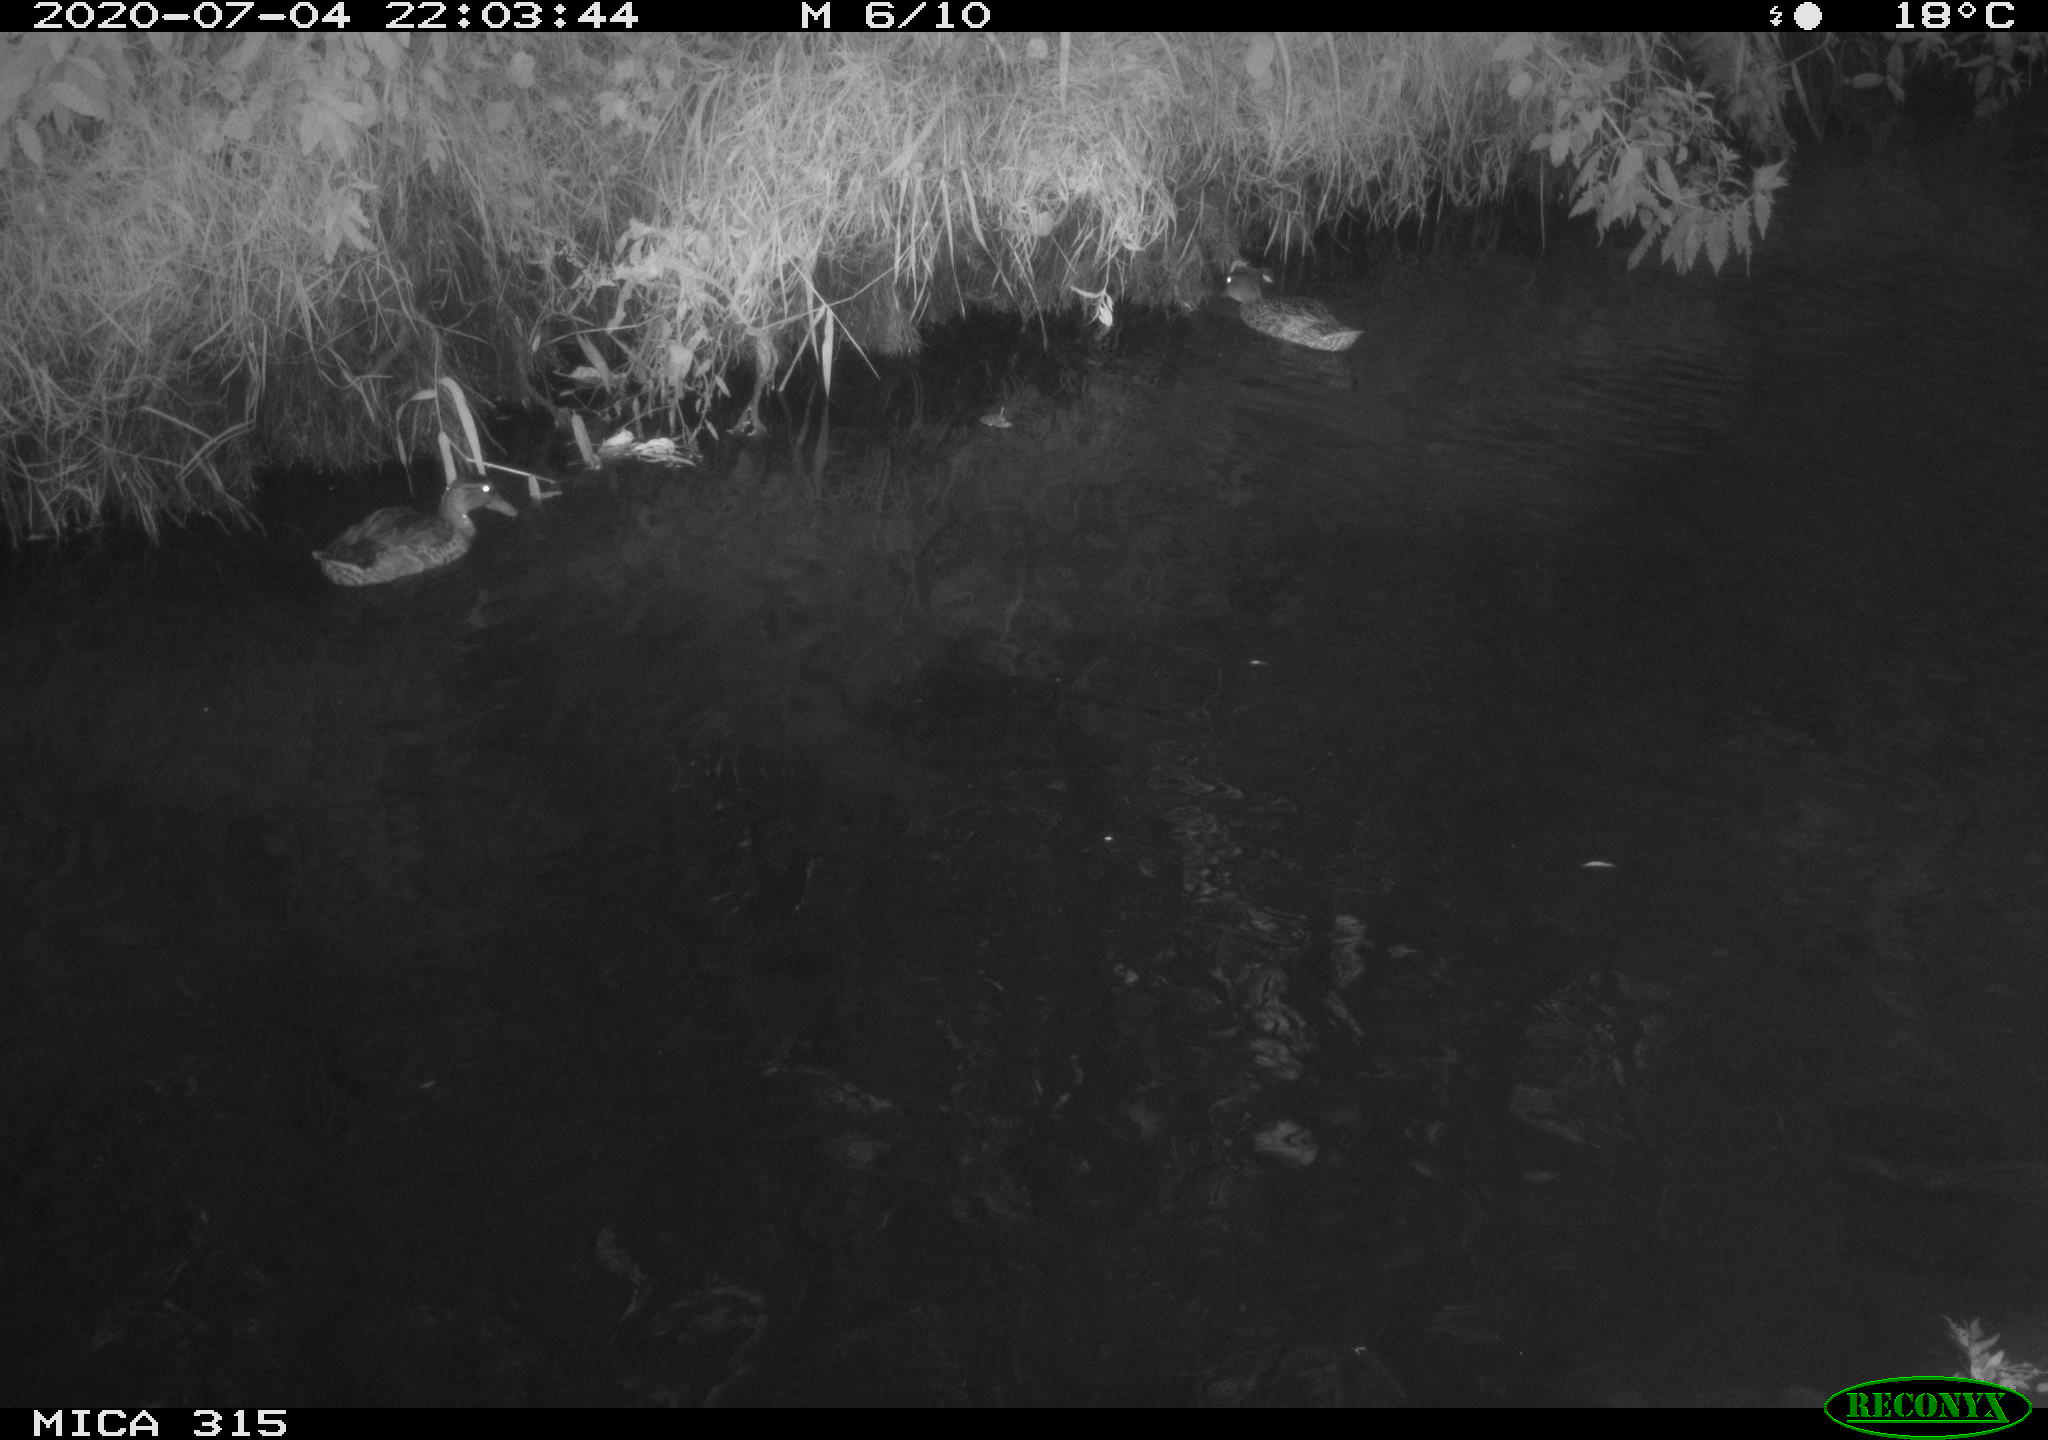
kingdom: Animalia
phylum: Chordata
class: Aves
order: Anseriformes
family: Anatidae
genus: Anas
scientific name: Anas platyrhynchos
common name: Mallard
